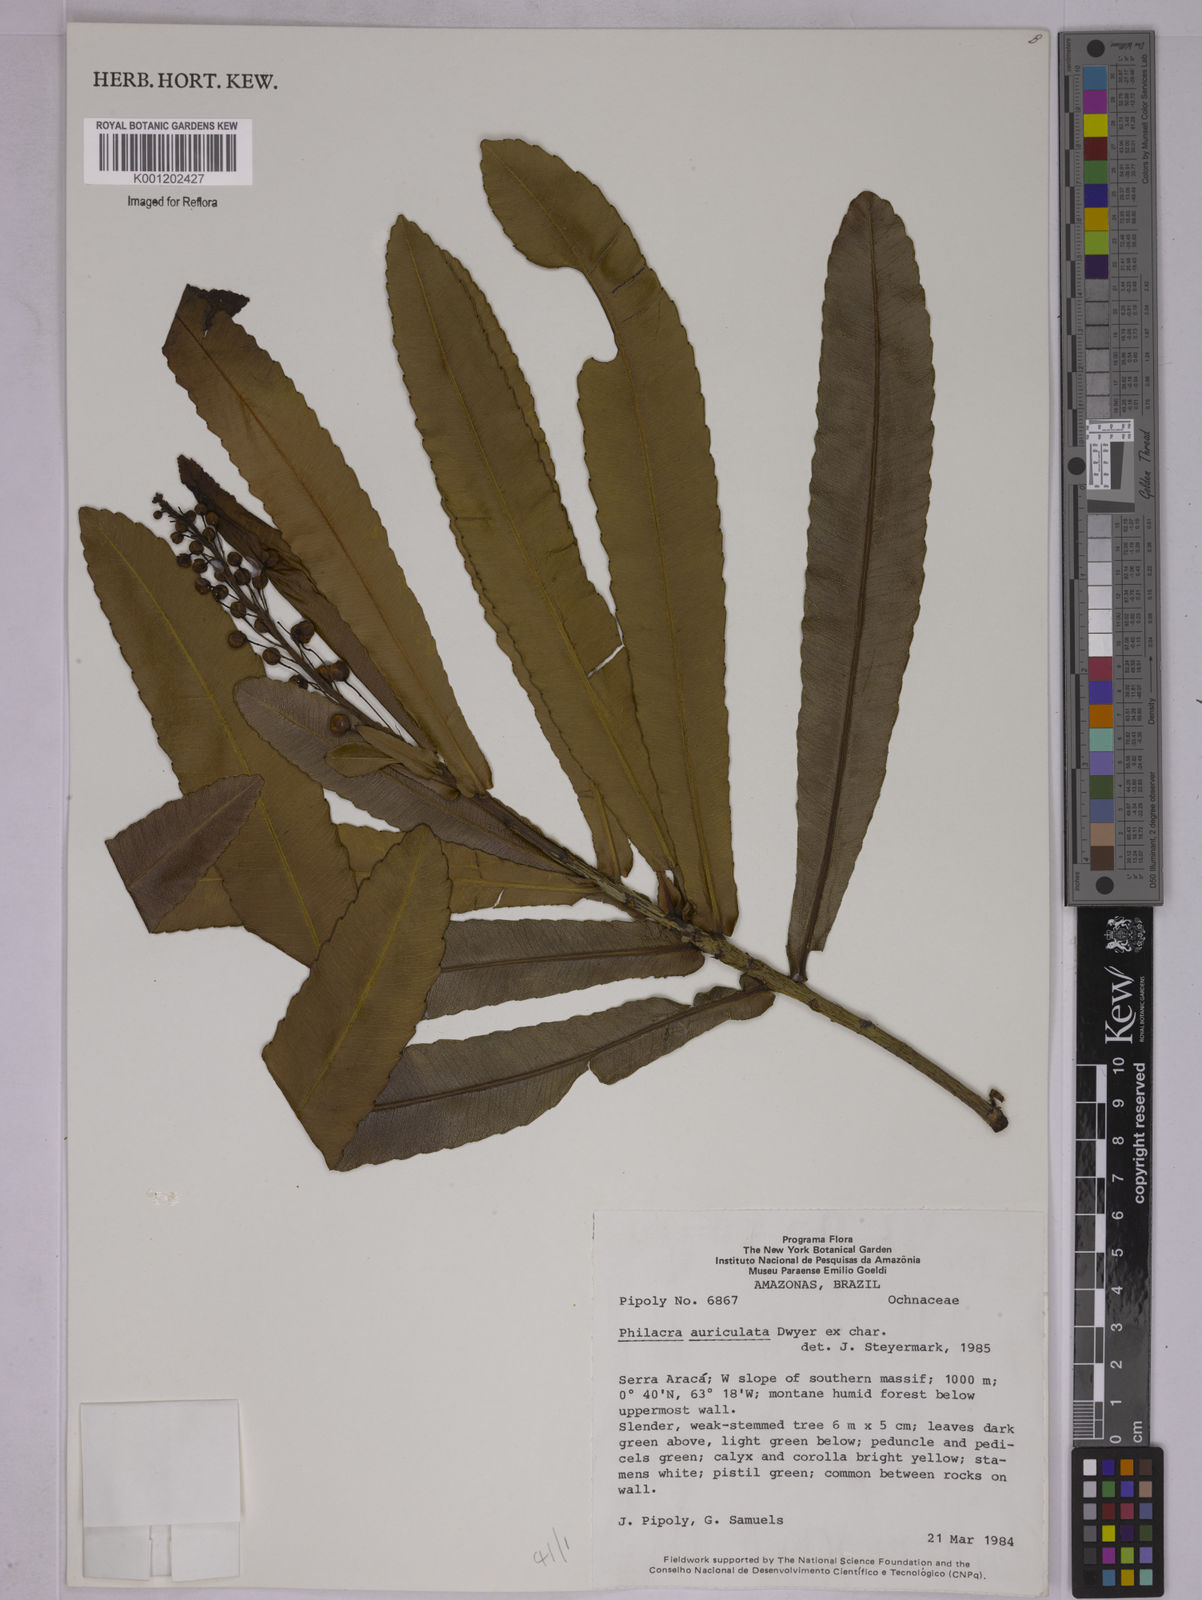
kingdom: Plantae
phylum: Tracheophyta
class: Magnoliopsida
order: Malpighiales
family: Ochnaceae
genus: Philacra
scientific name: Philacra auriculata
